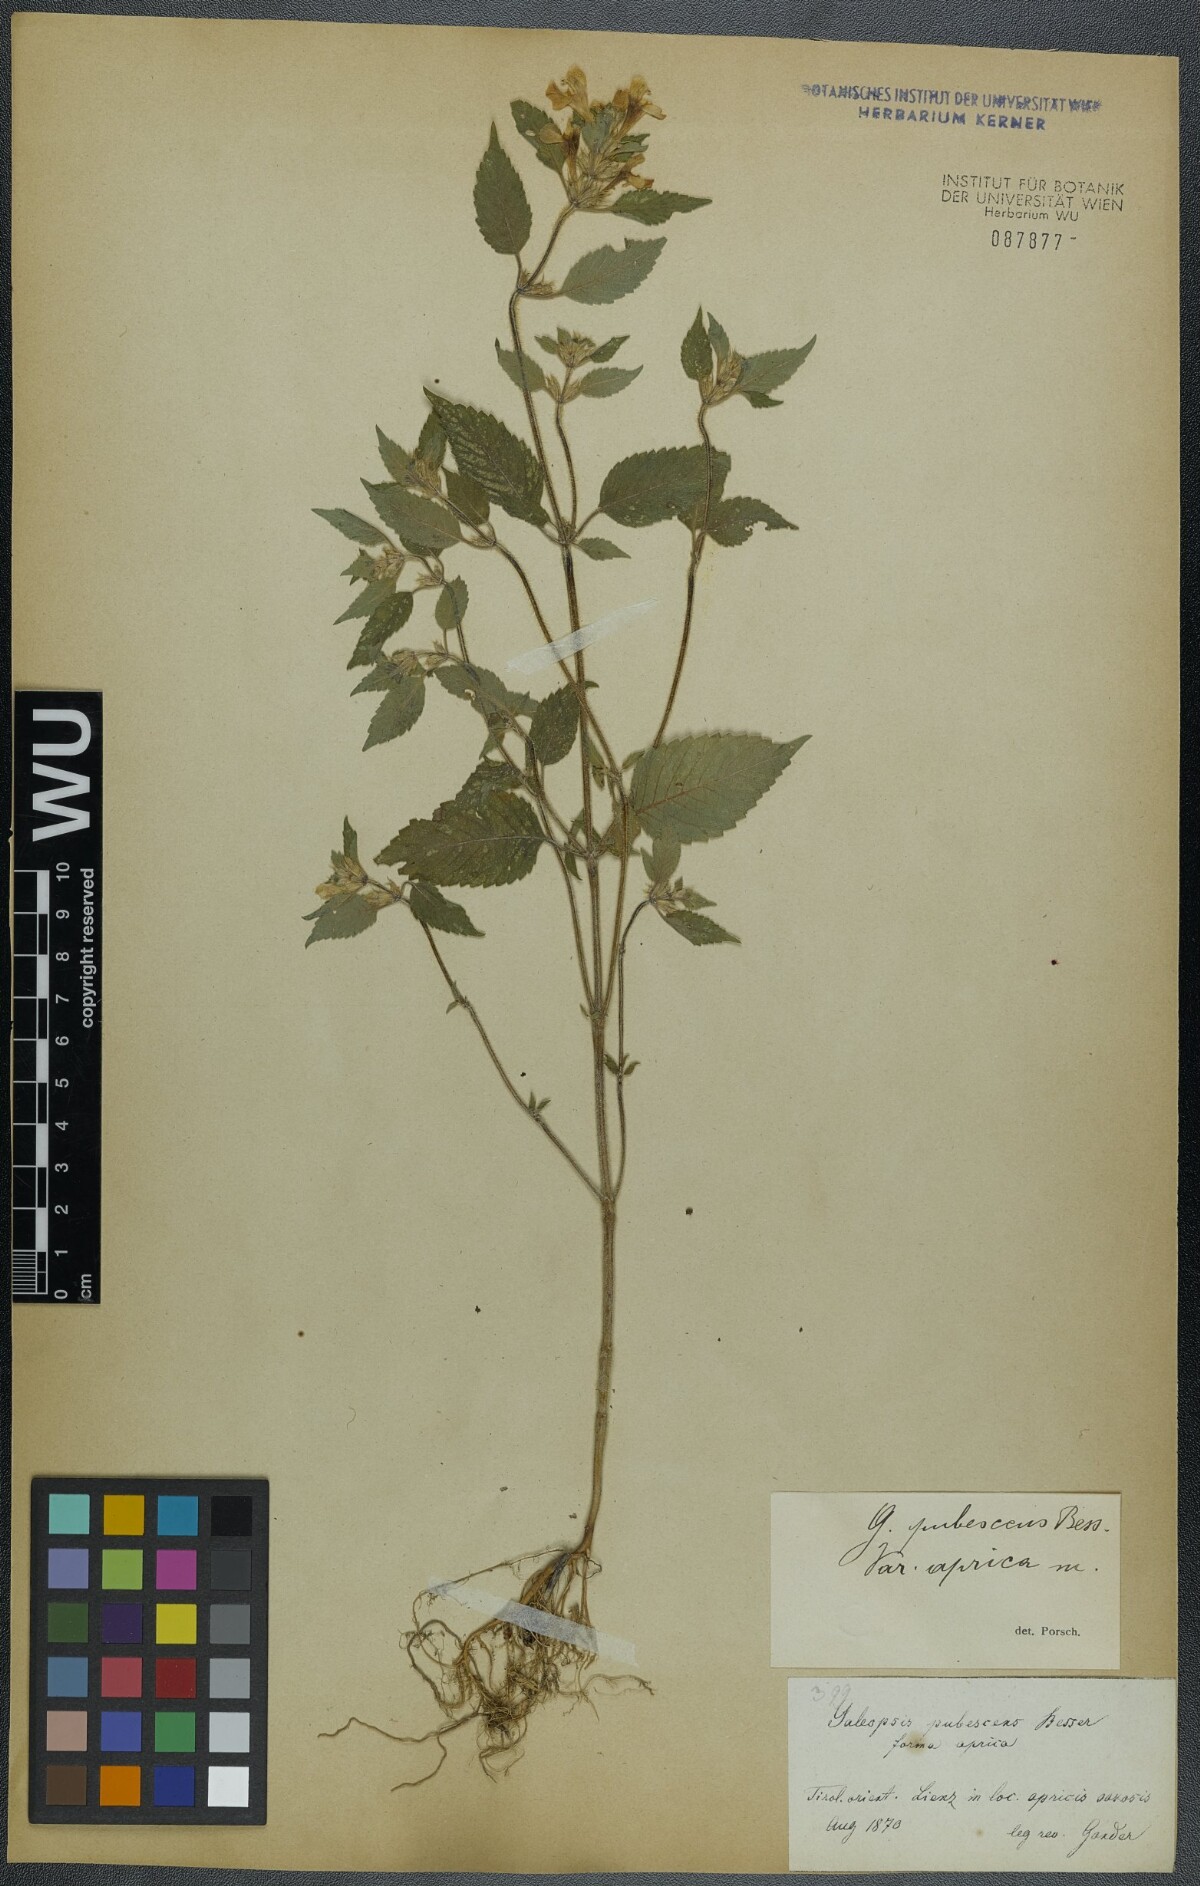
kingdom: Plantae
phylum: Tracheophyta
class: Magnoliopsida
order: Lamiales
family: Lamiaceae
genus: Galeopsis
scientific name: Galeopsis pubescens
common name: Downy hemp-nettle
